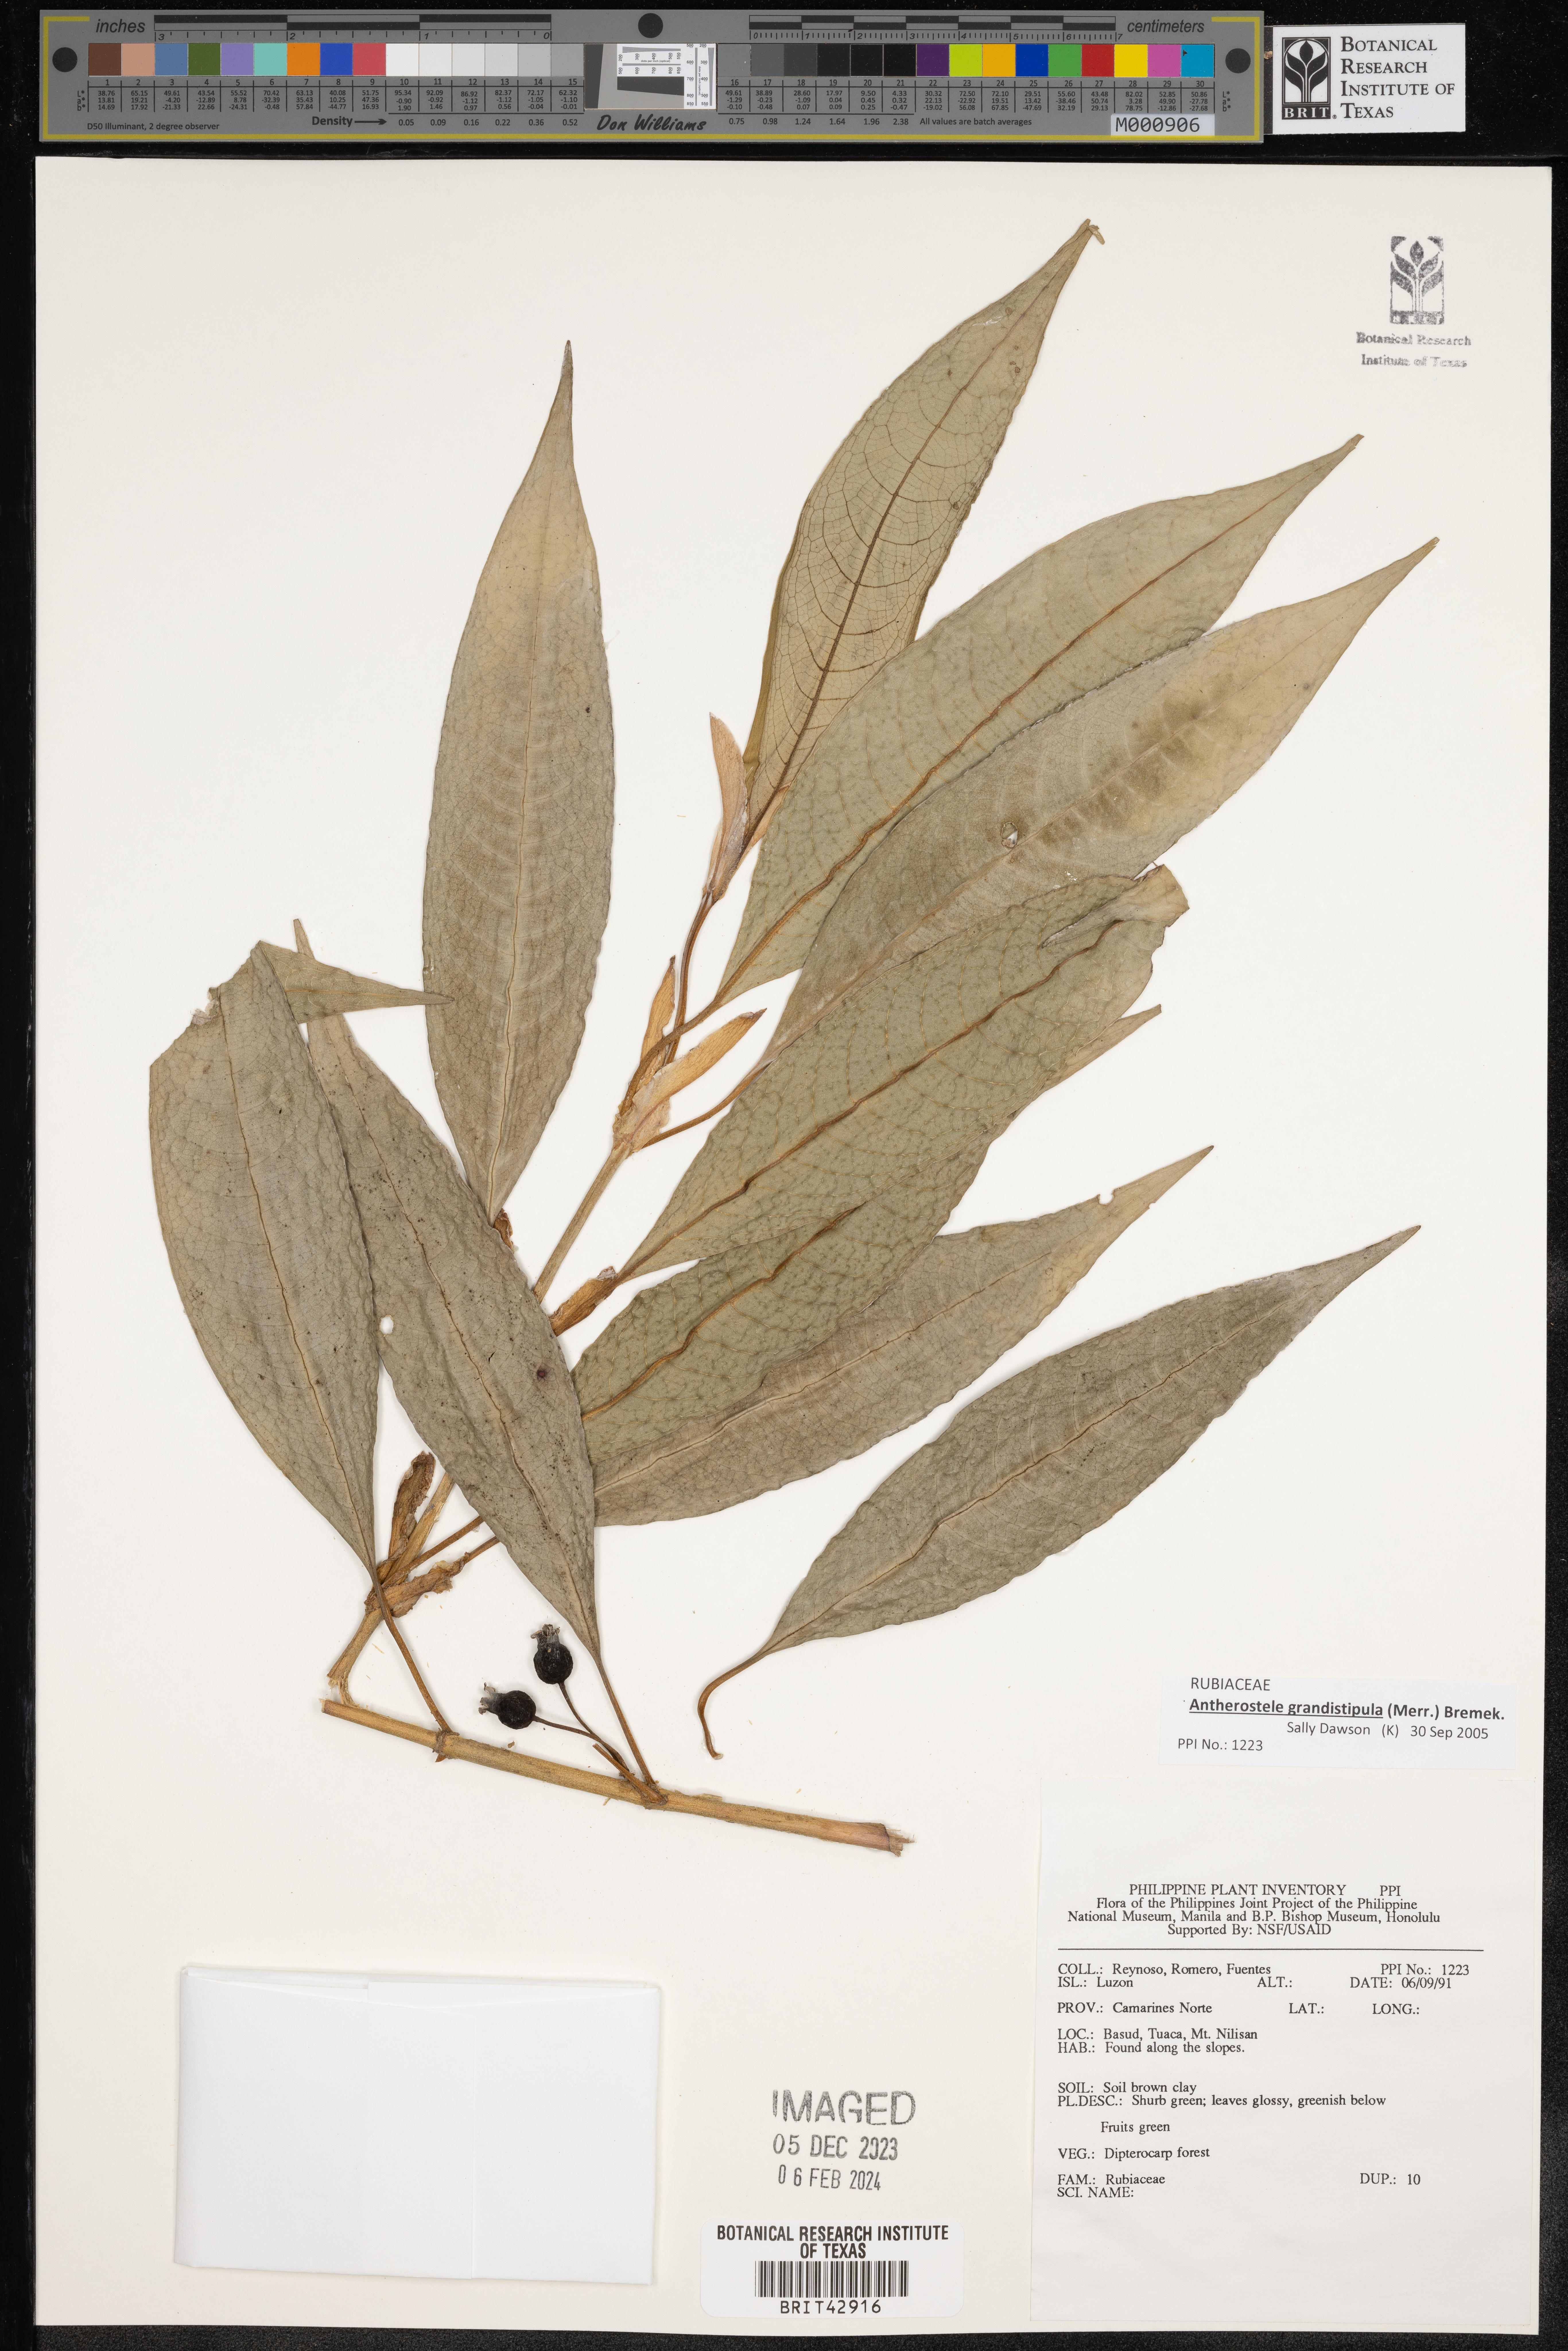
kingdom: Plantae
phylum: Tracheophyta
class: Magnoliopsida
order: Gentianales
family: Rubiaceae
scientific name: Rubiaceae
